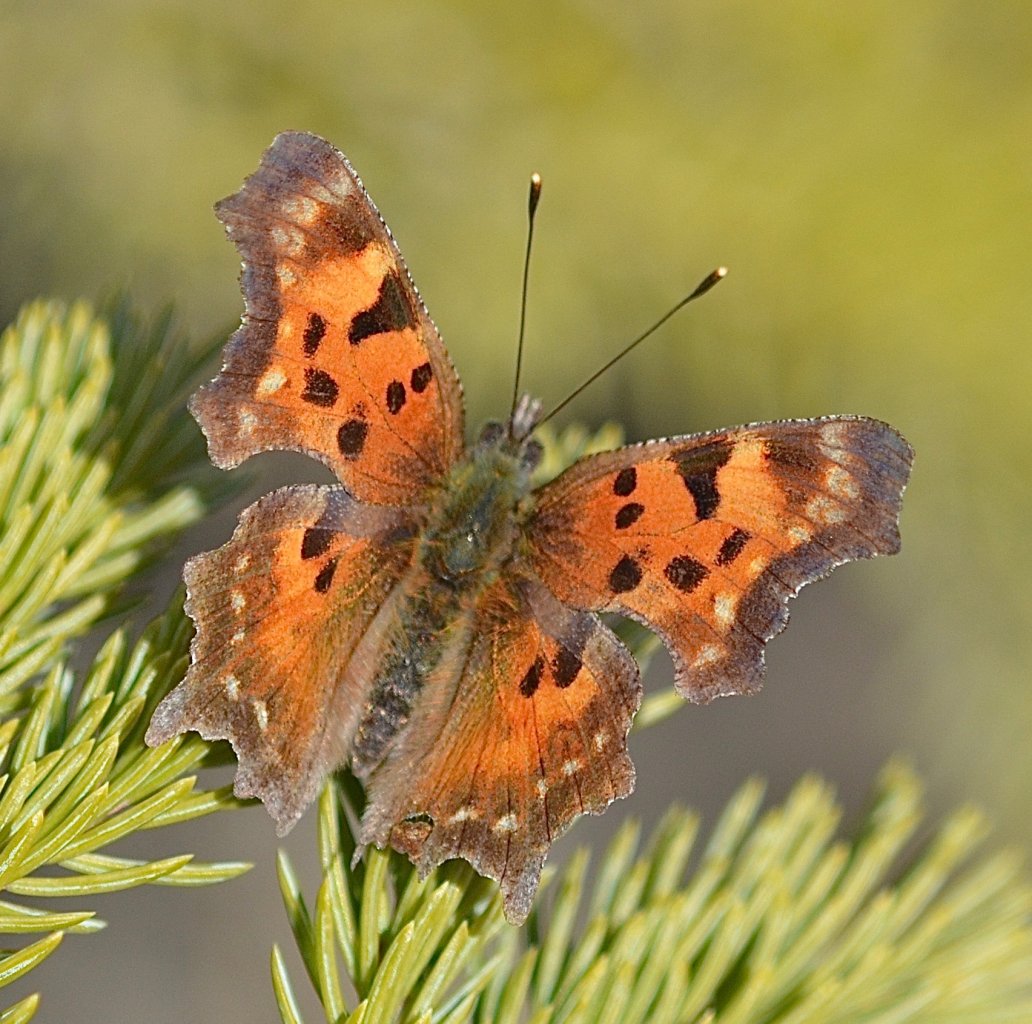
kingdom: Animalia
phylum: Arthropoda
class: Insecta
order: Lepidoptera
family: Nymphalidae
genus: Polygonia
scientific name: Polygonia faunus
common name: Green Comma
